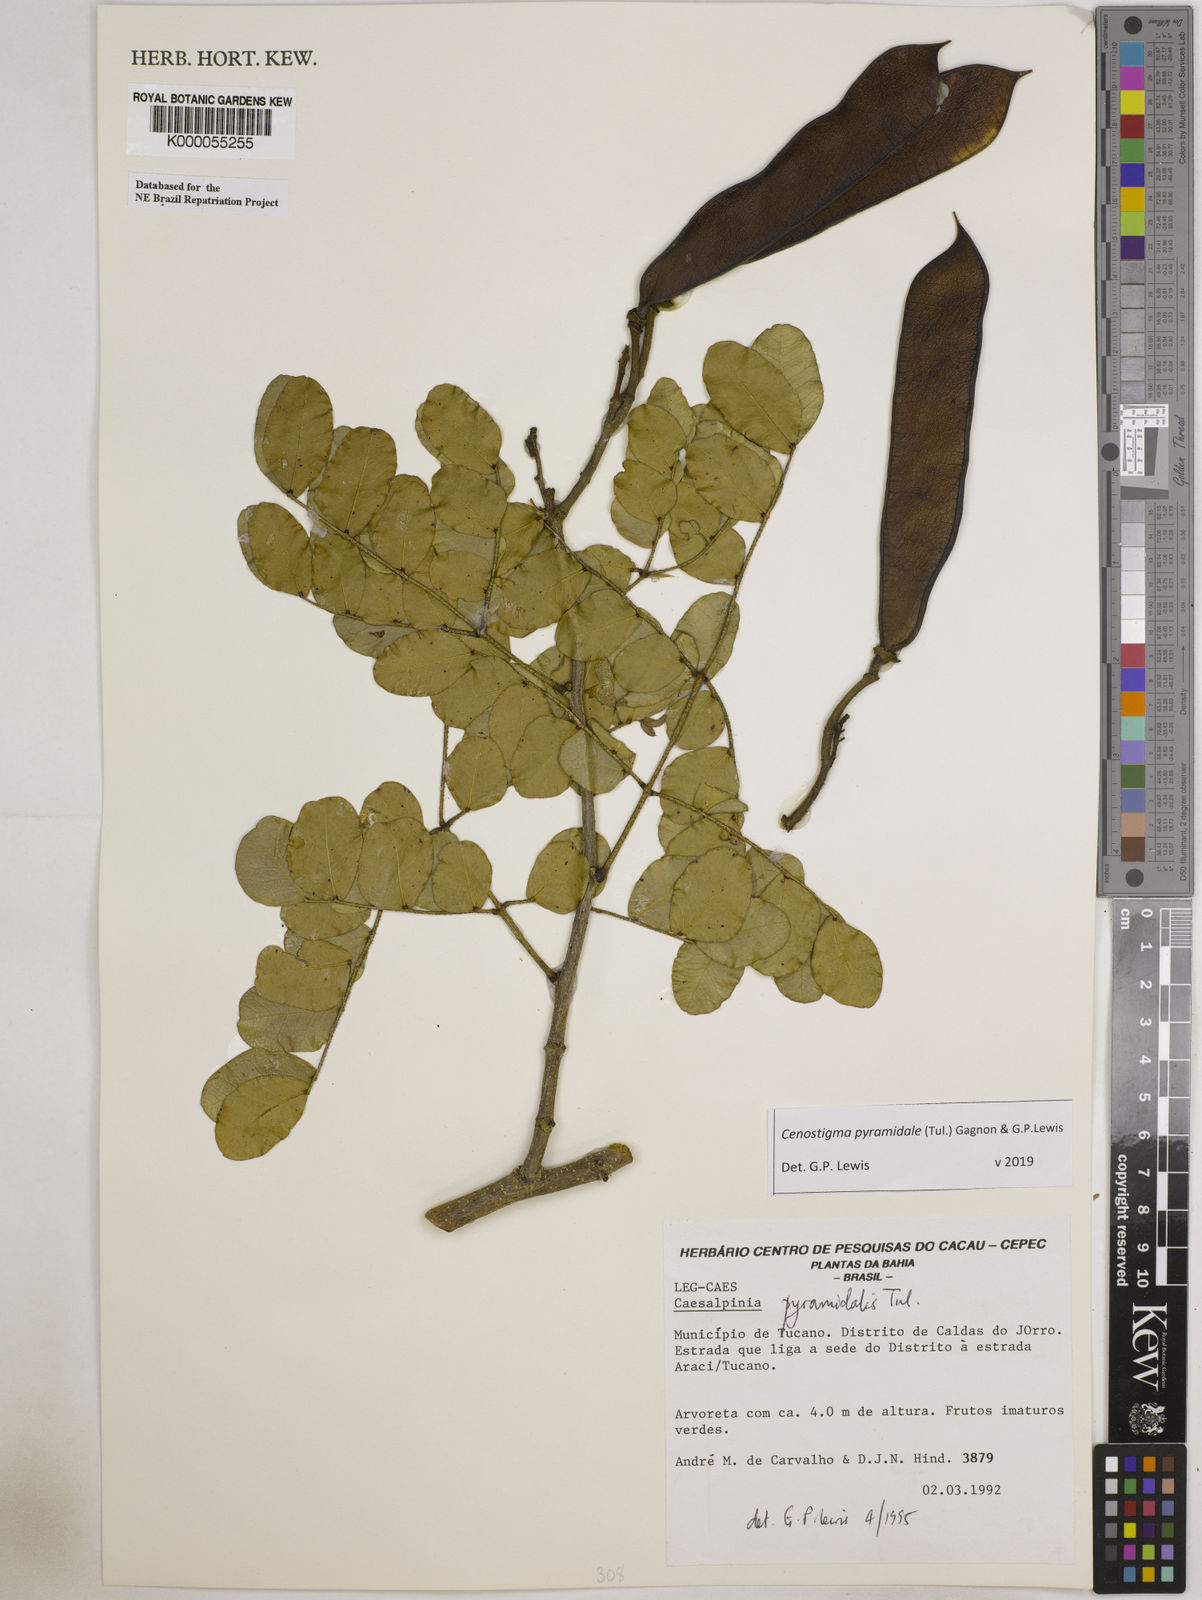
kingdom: Plantae
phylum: Tracheophyta
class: Magnoliopsida
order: Fabales
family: Fabaceae
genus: Cenostigma
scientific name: Cenostigma pyramidale
